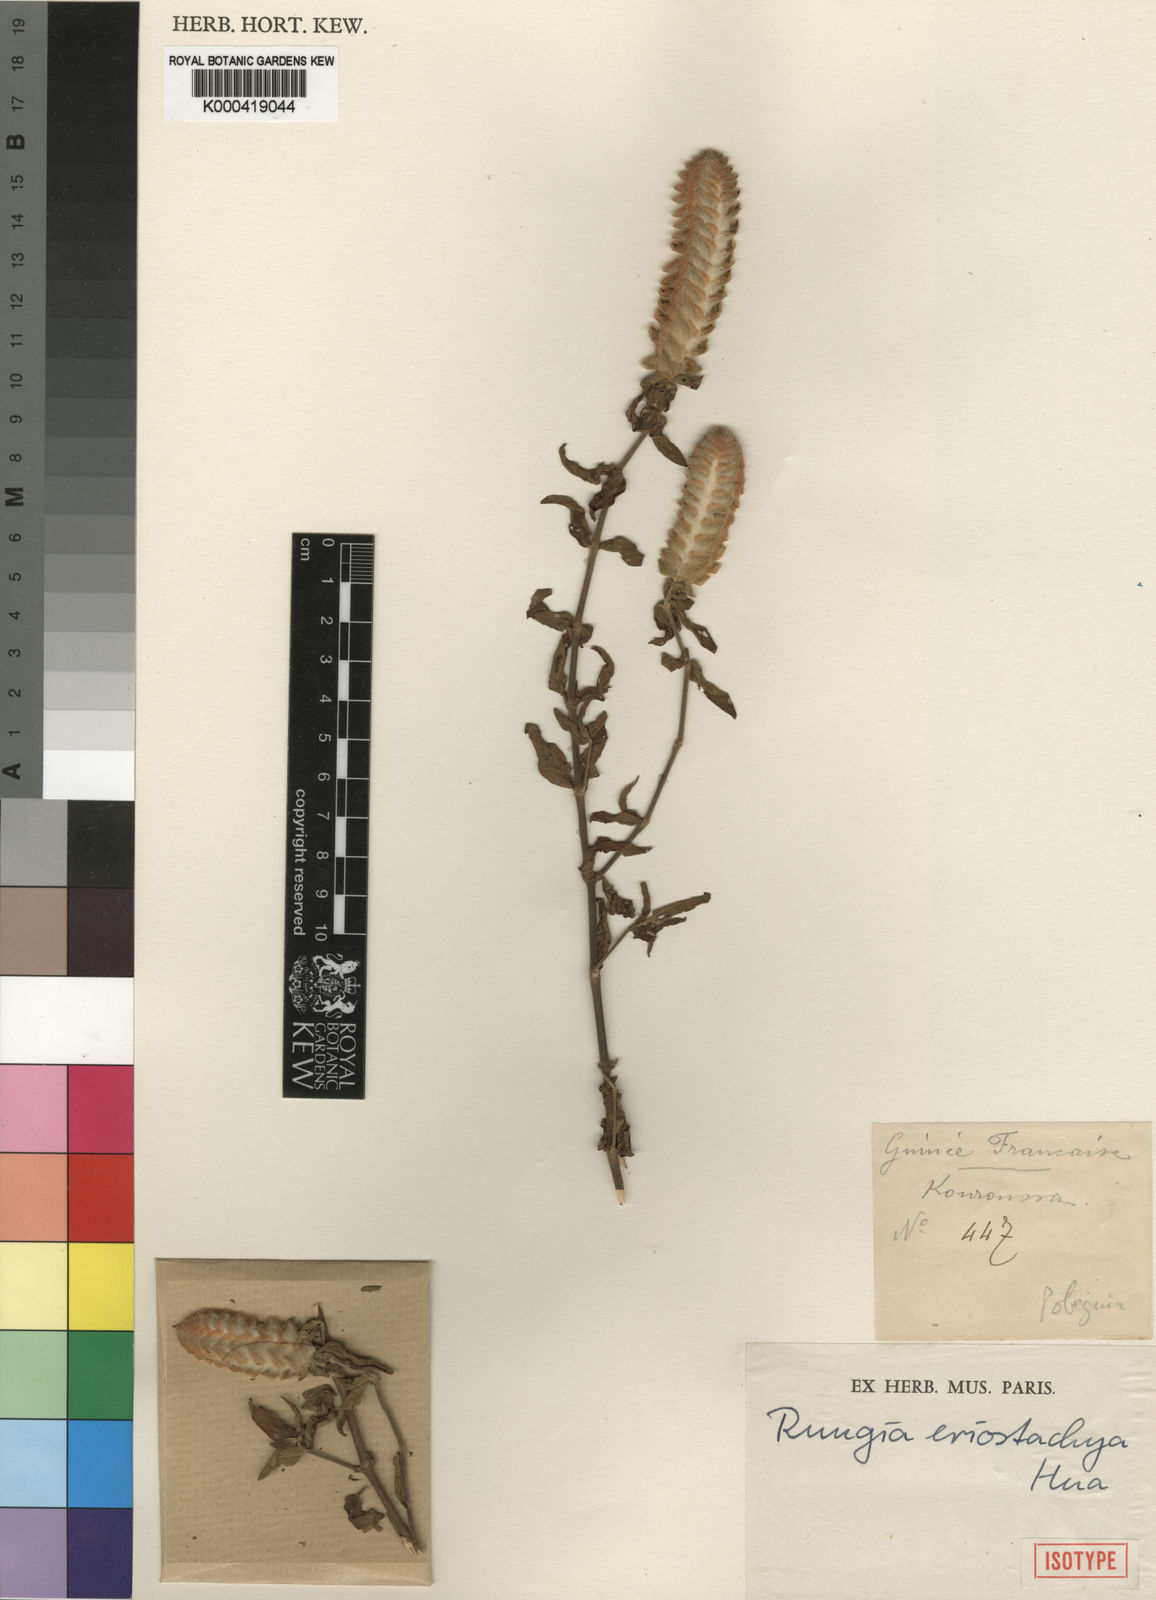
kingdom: Plantae
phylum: Tracheophyta
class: Magnoliopsida
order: Lamiales
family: Acanthaceae
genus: Justicia
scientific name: Justicia
